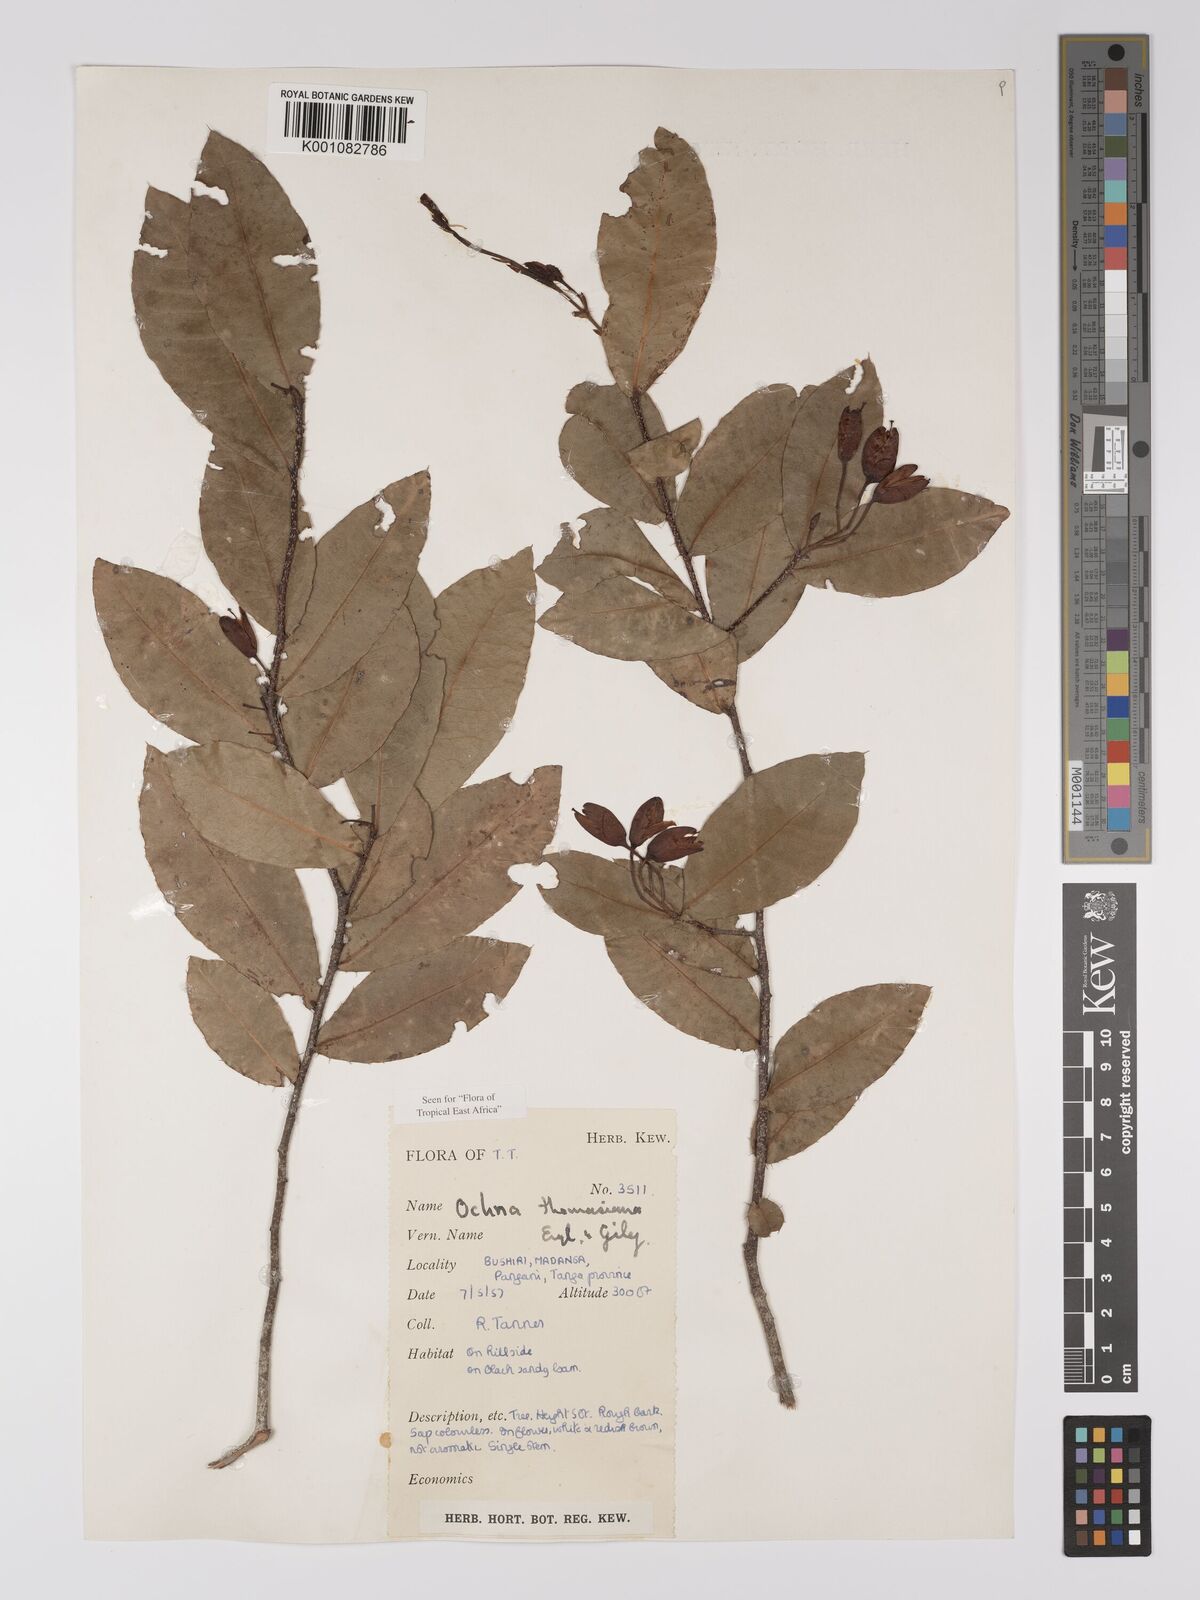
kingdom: Plantae
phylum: Tracheophyta
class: Magnoliopsida
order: Malpighiales
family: Ochnaceae
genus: Ochna
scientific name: Ochna thomasiana
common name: Thomas' bird's-eye bush
